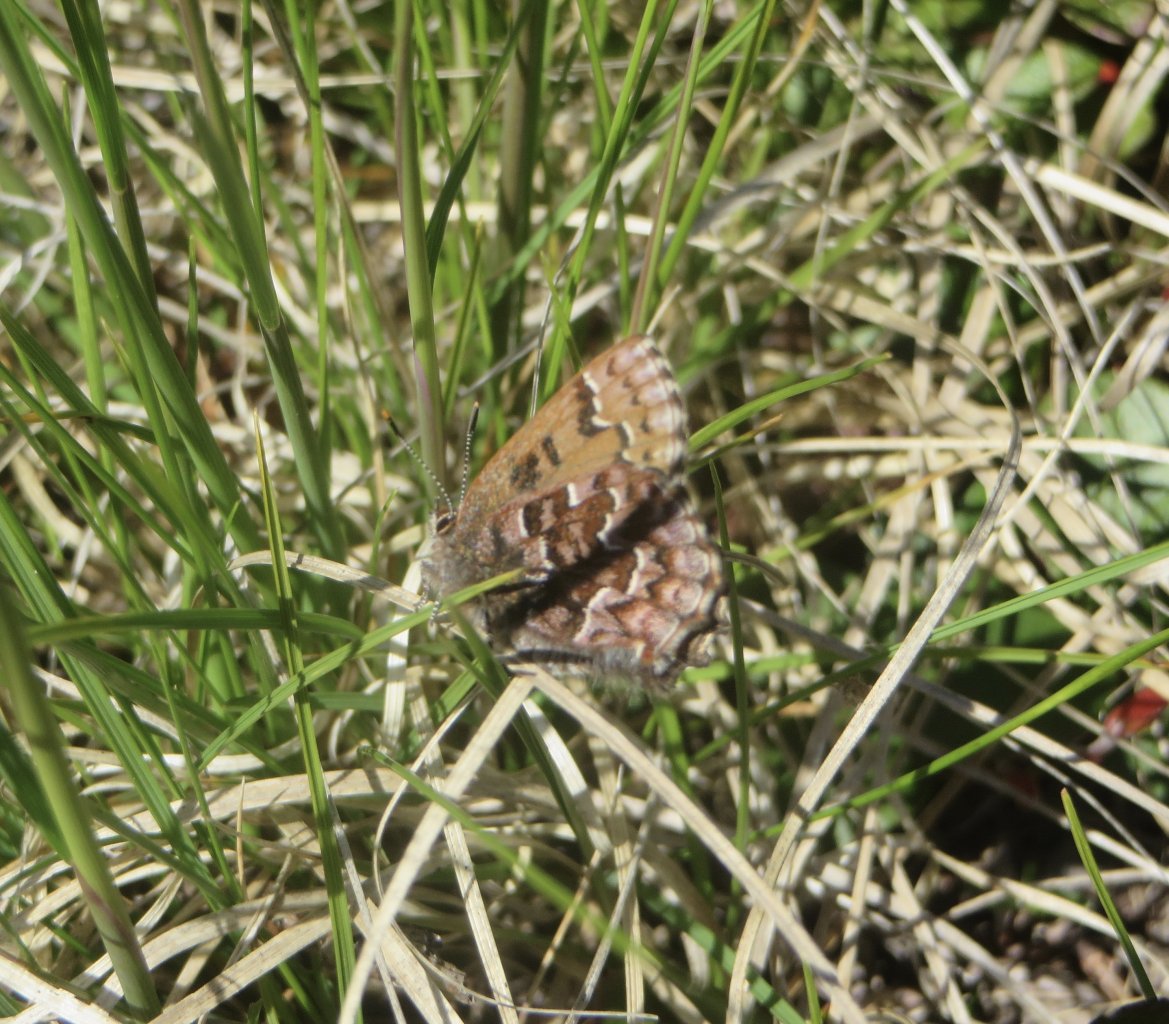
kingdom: Animalia
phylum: Arthropoda
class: Insecta
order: Lepidoptera
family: Lycaenidae
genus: Incisalia
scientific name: Incisalia niphon
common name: Eastern Pine Elfin
